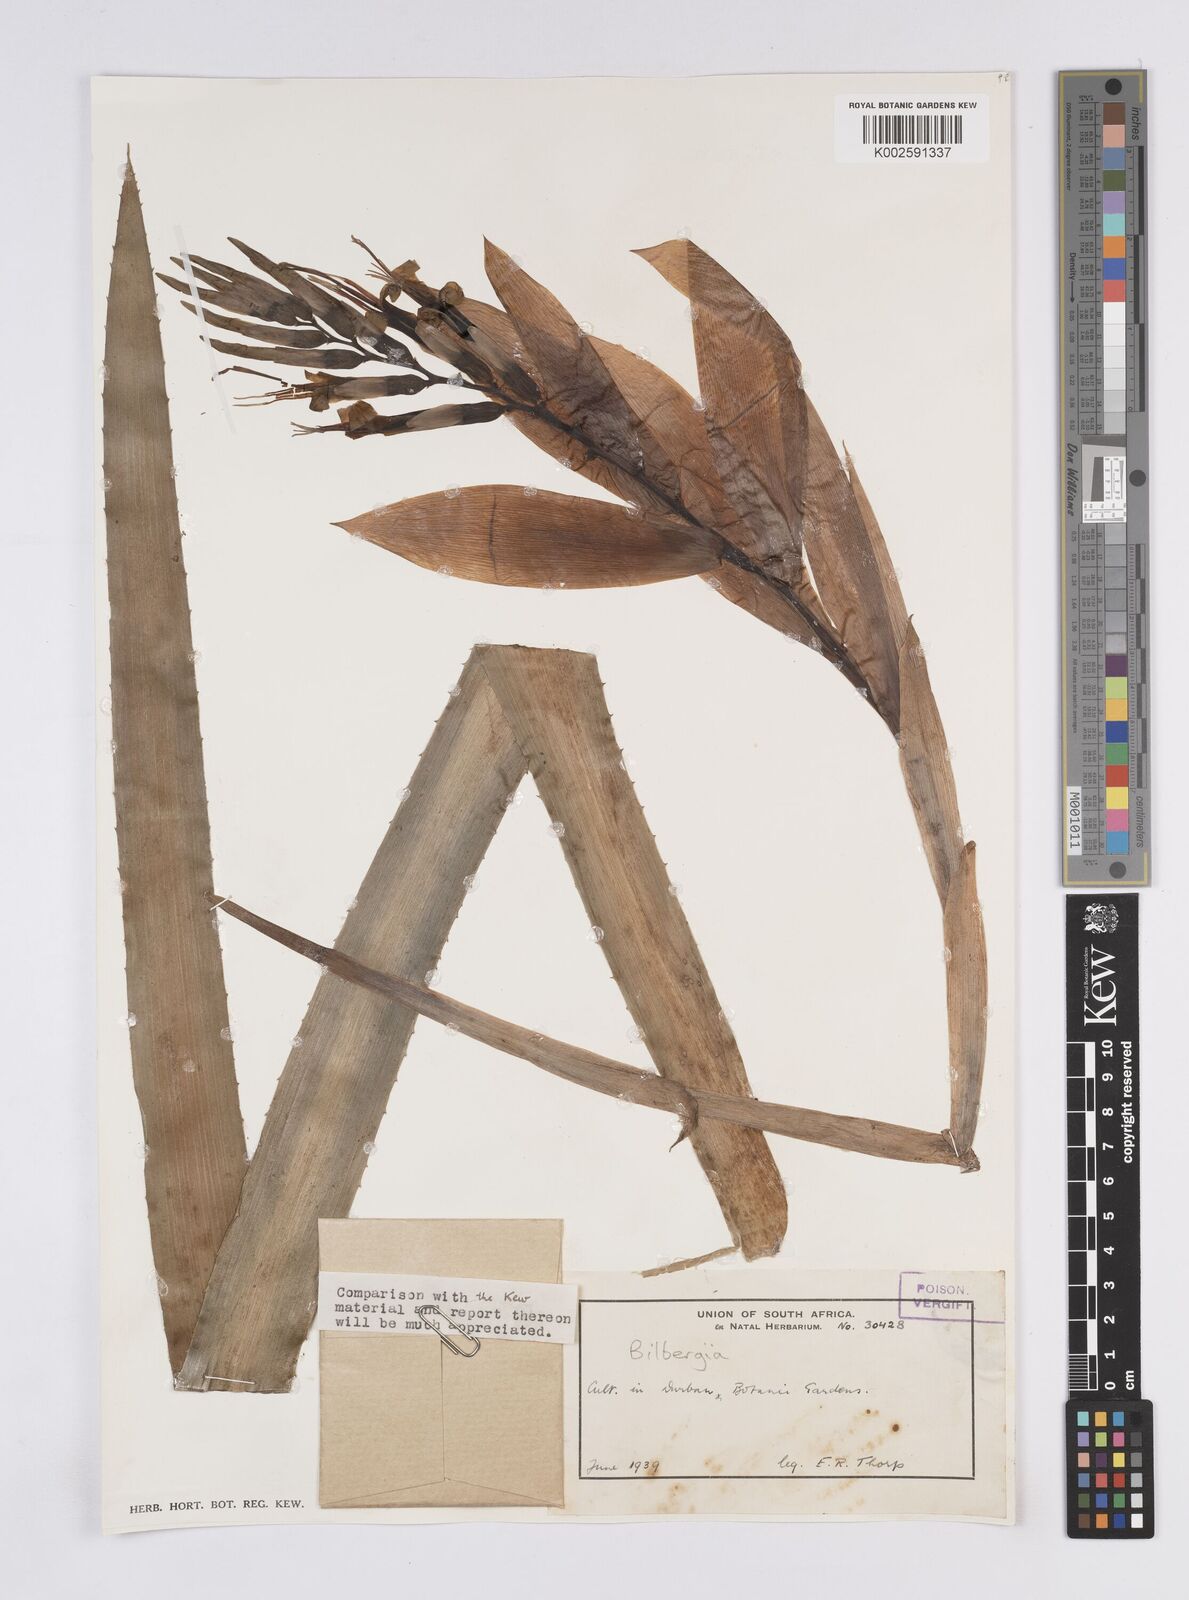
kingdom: Plantae
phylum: Tracheophyta
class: Liliopsida
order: Poales
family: Bromeliaceae
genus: Billbergia
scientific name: Billbergia
